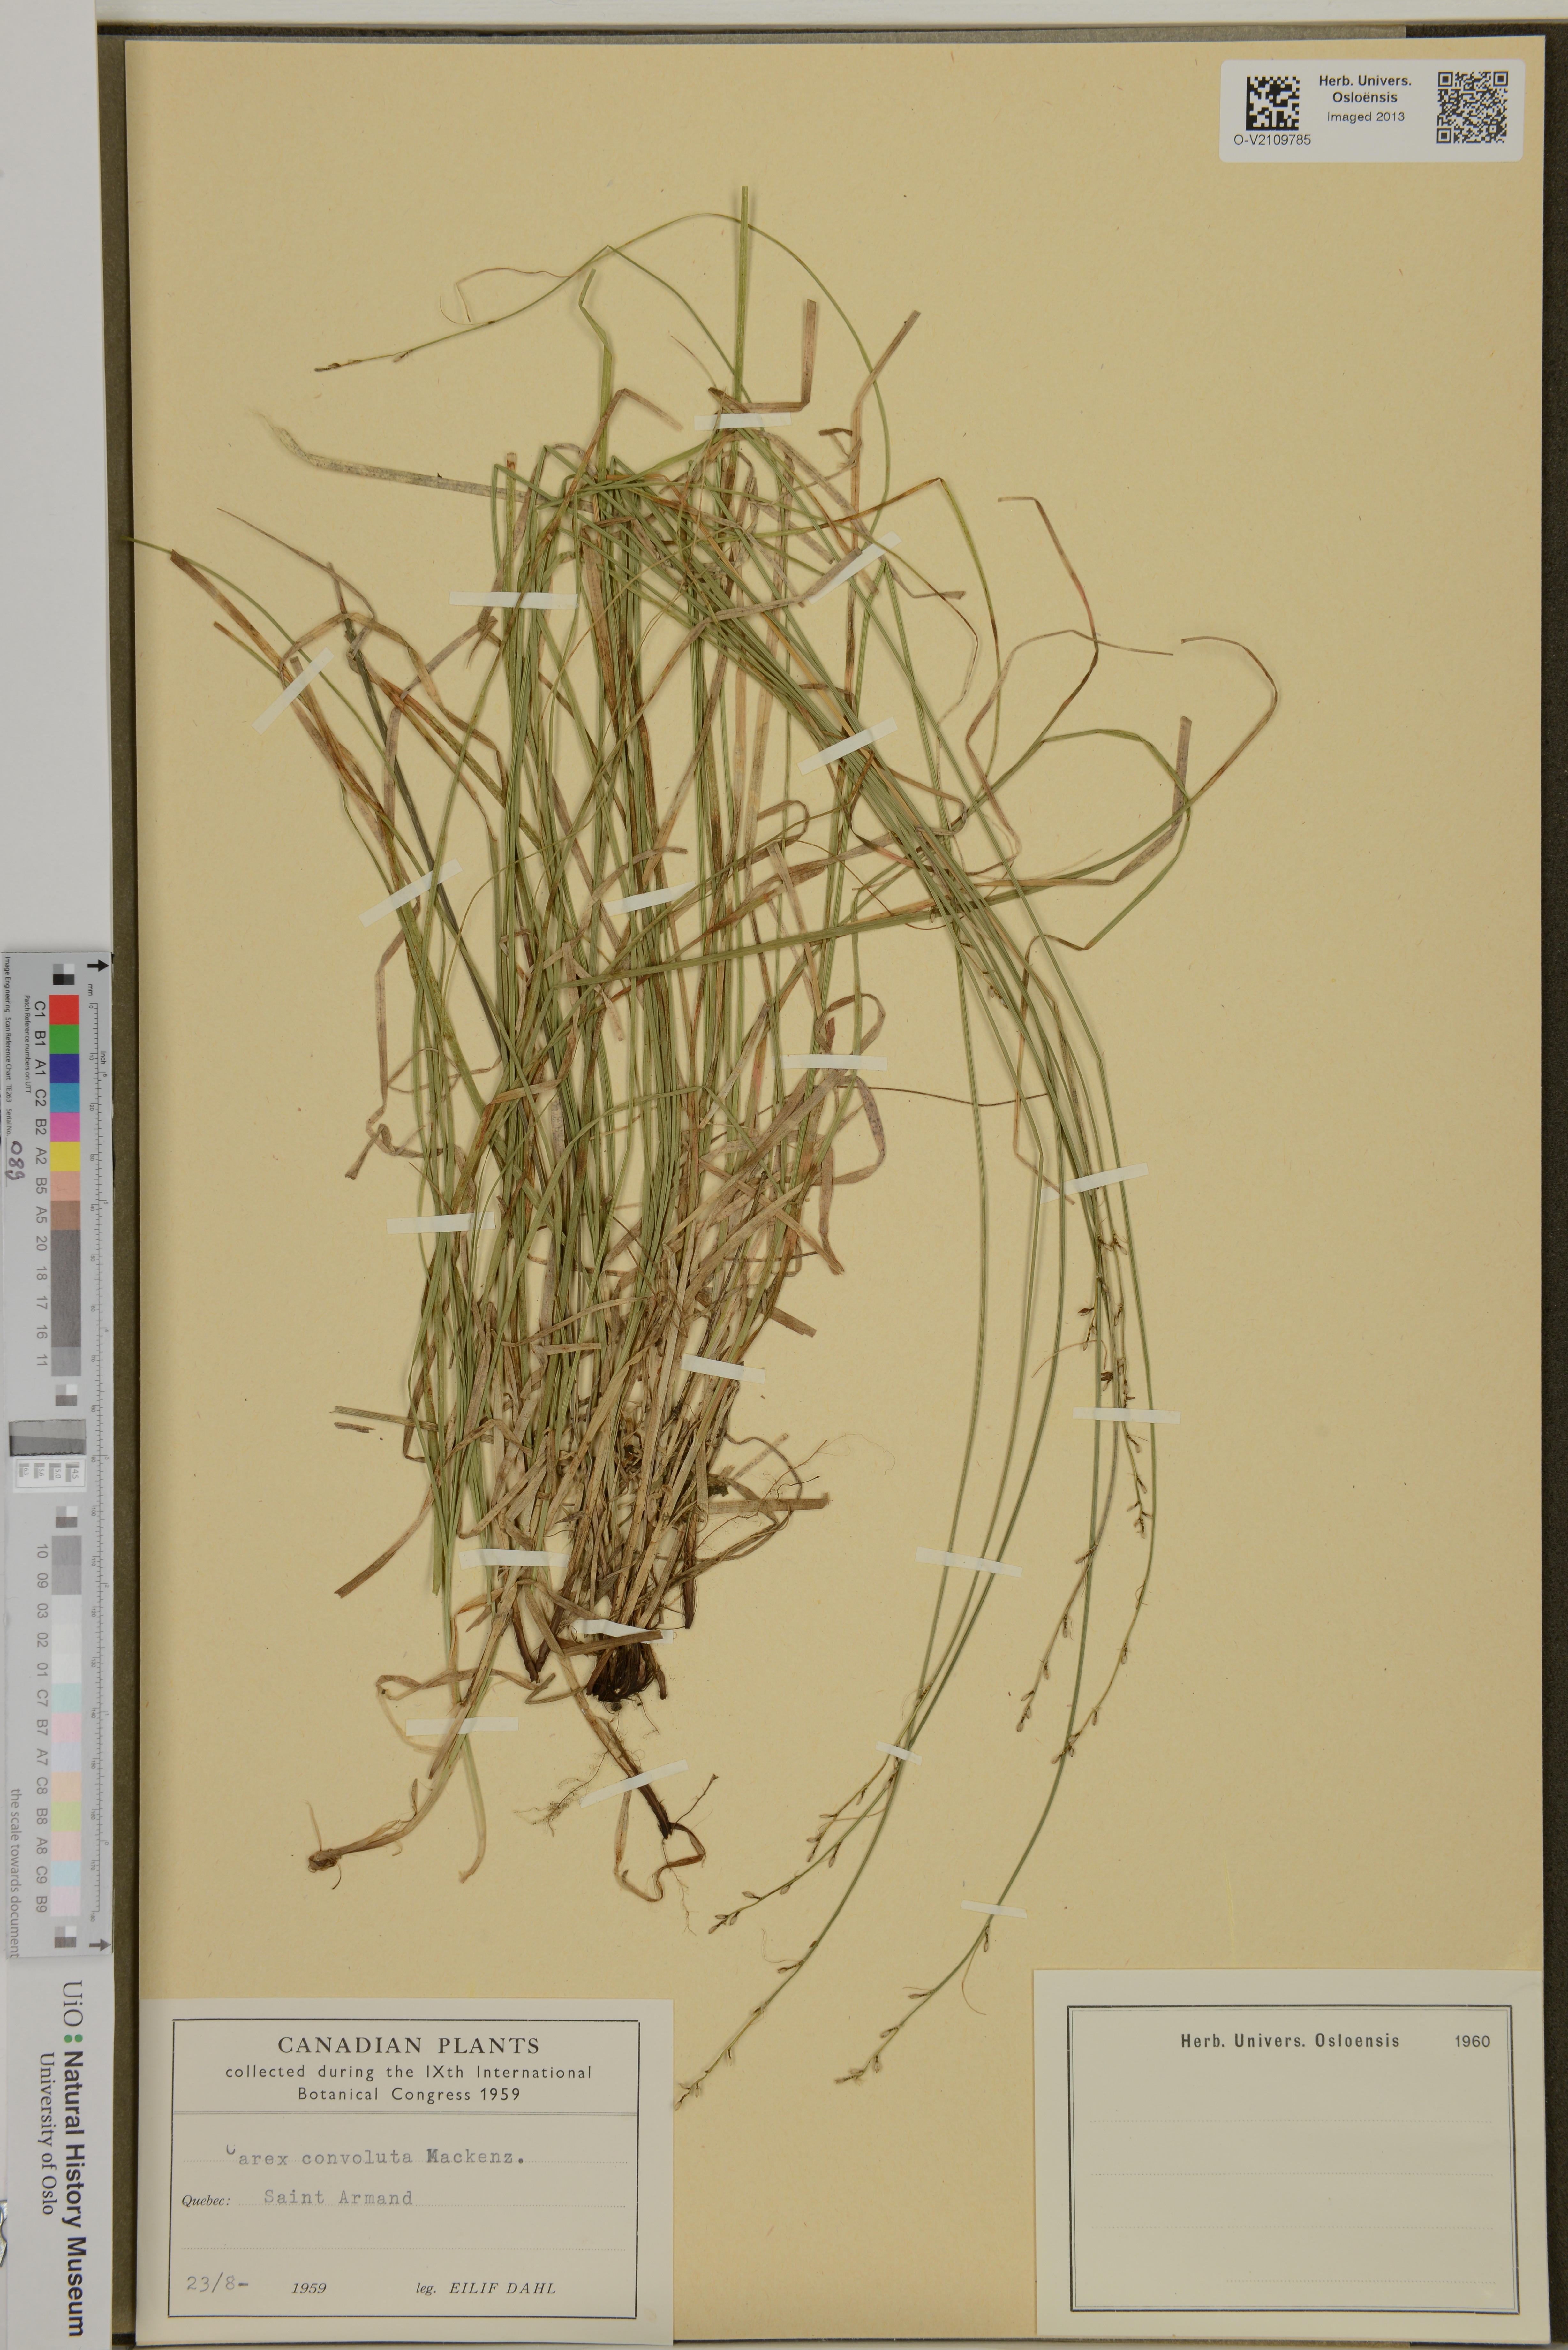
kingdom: Plantae
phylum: Tracheophyta
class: Liliopsida
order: Poales
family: Cyperaceae
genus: Carex
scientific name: Carex rosea
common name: Curly-styled wood sedge
